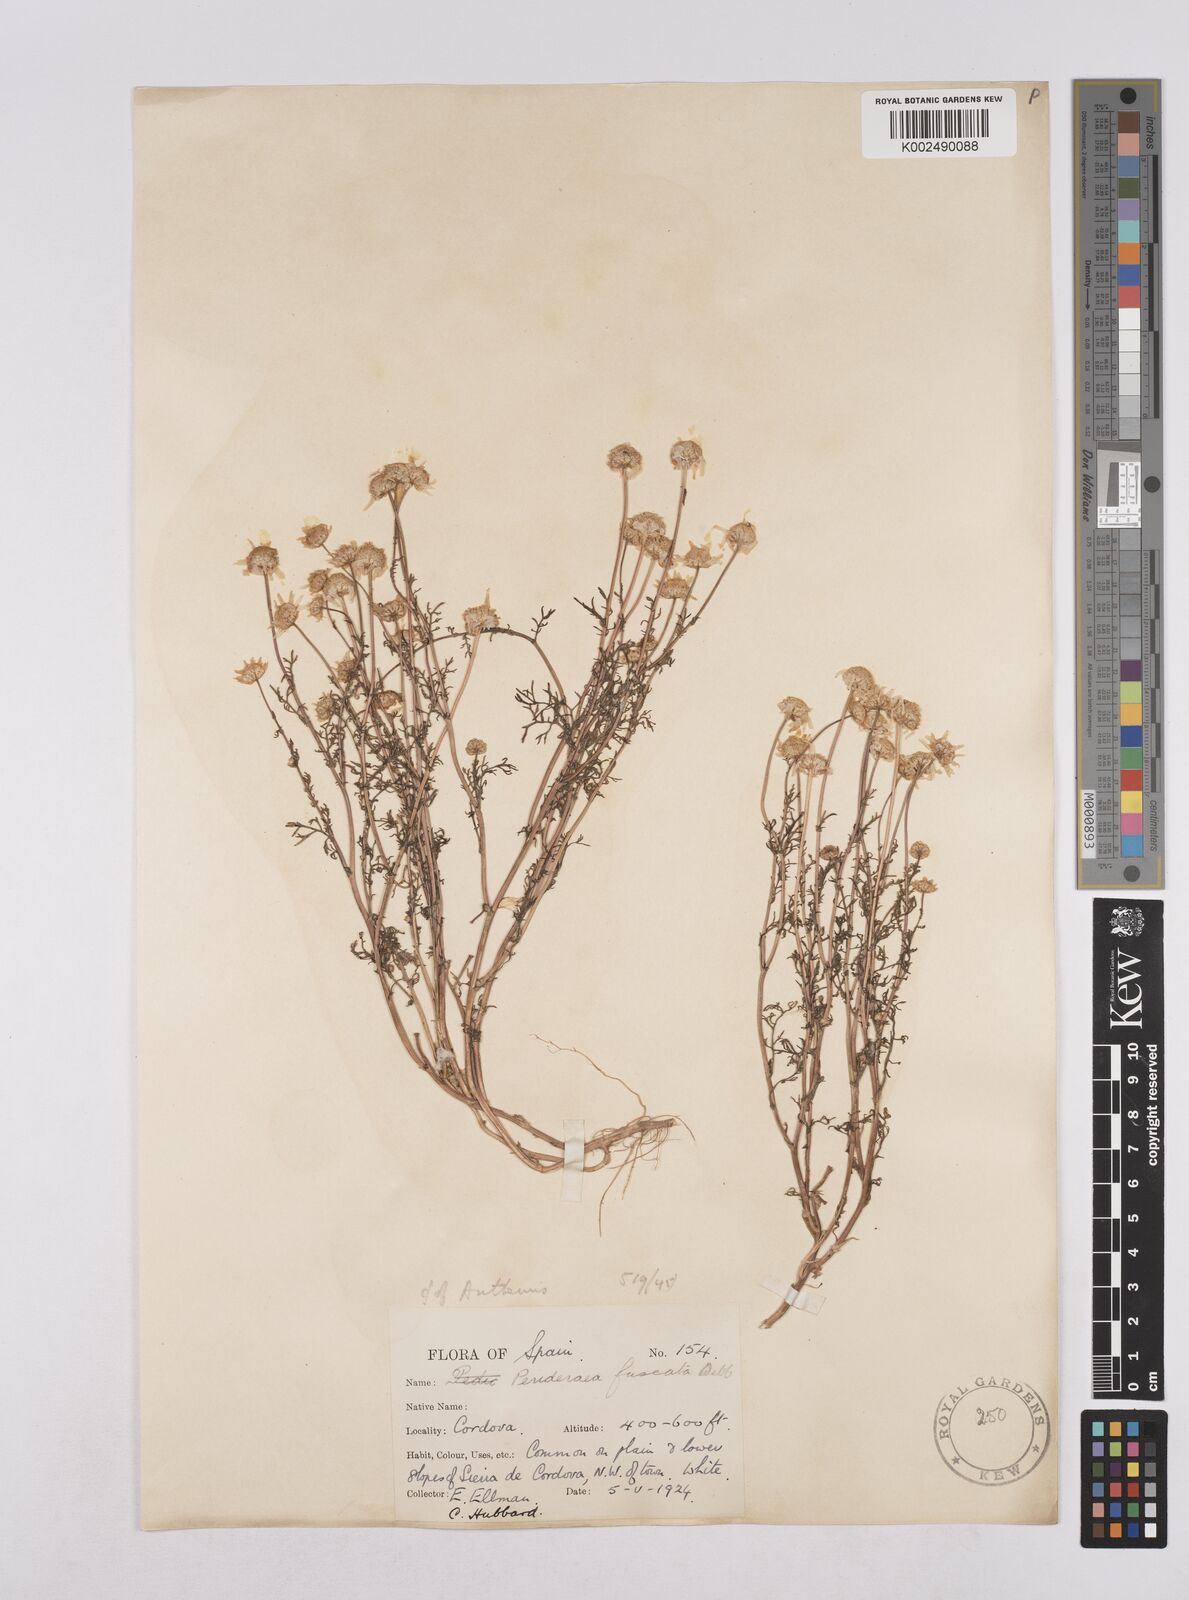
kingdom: Plantae
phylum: Tracheophyta
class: Magnoliopsida
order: Asterales
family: Asteraceae
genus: Chamaemelum
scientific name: Chamaemelum fuscatum
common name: Chamomile
